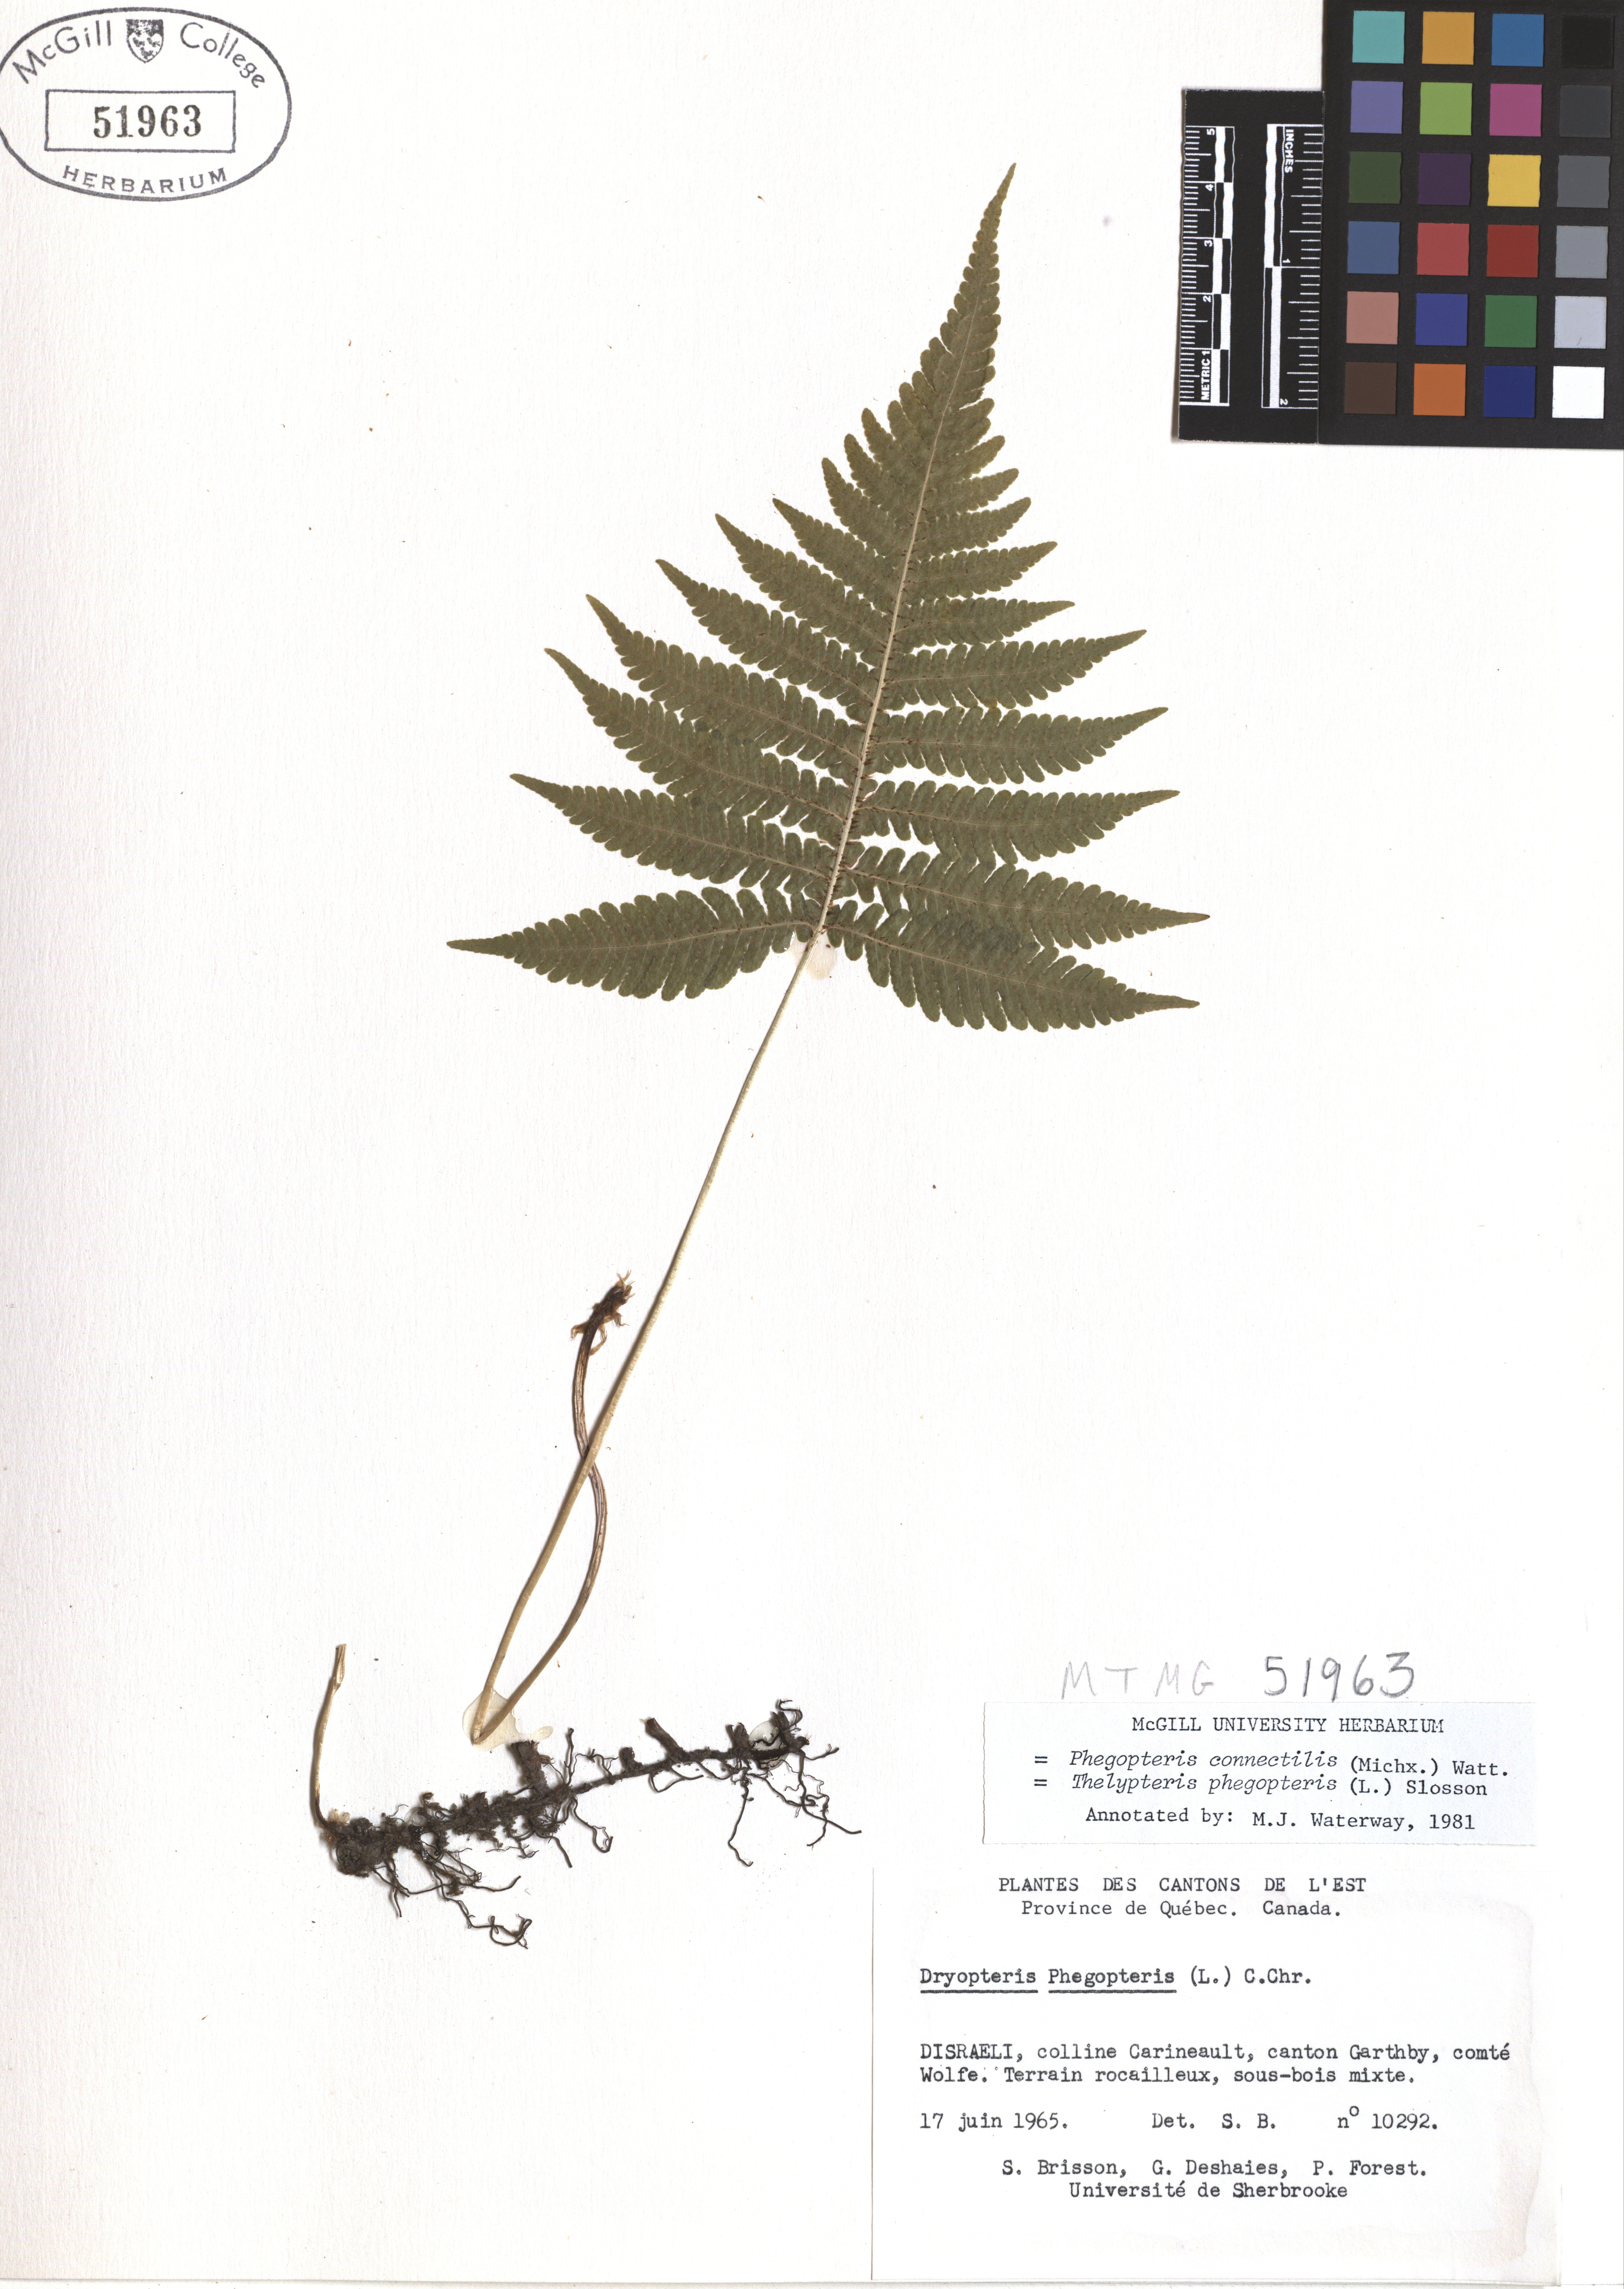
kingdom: Plantae
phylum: Tracheophyta
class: Polypodiopsida
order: Polypodiales
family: Thelypteridaceae
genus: Phegopteris
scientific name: Phegopteris connectilis
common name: Beech fern
